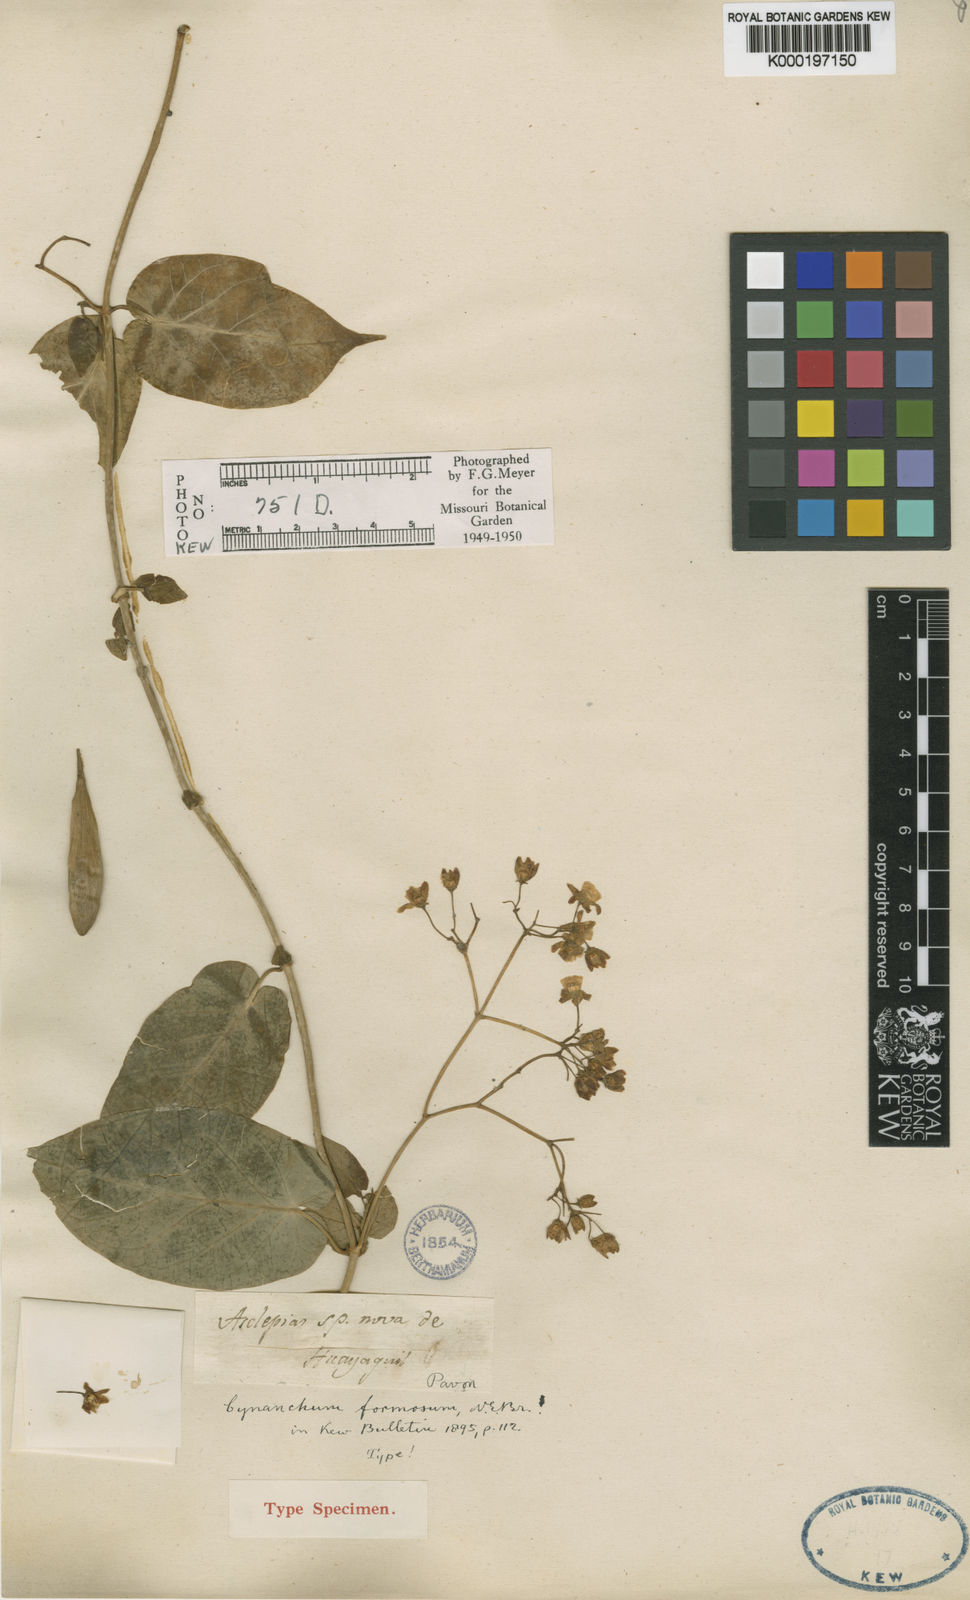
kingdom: Plantae
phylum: Tracheophyta
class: Magnoliopsida
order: Gentianales
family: Apocynaceae
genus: Jobinia
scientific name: Jobinia formosa
